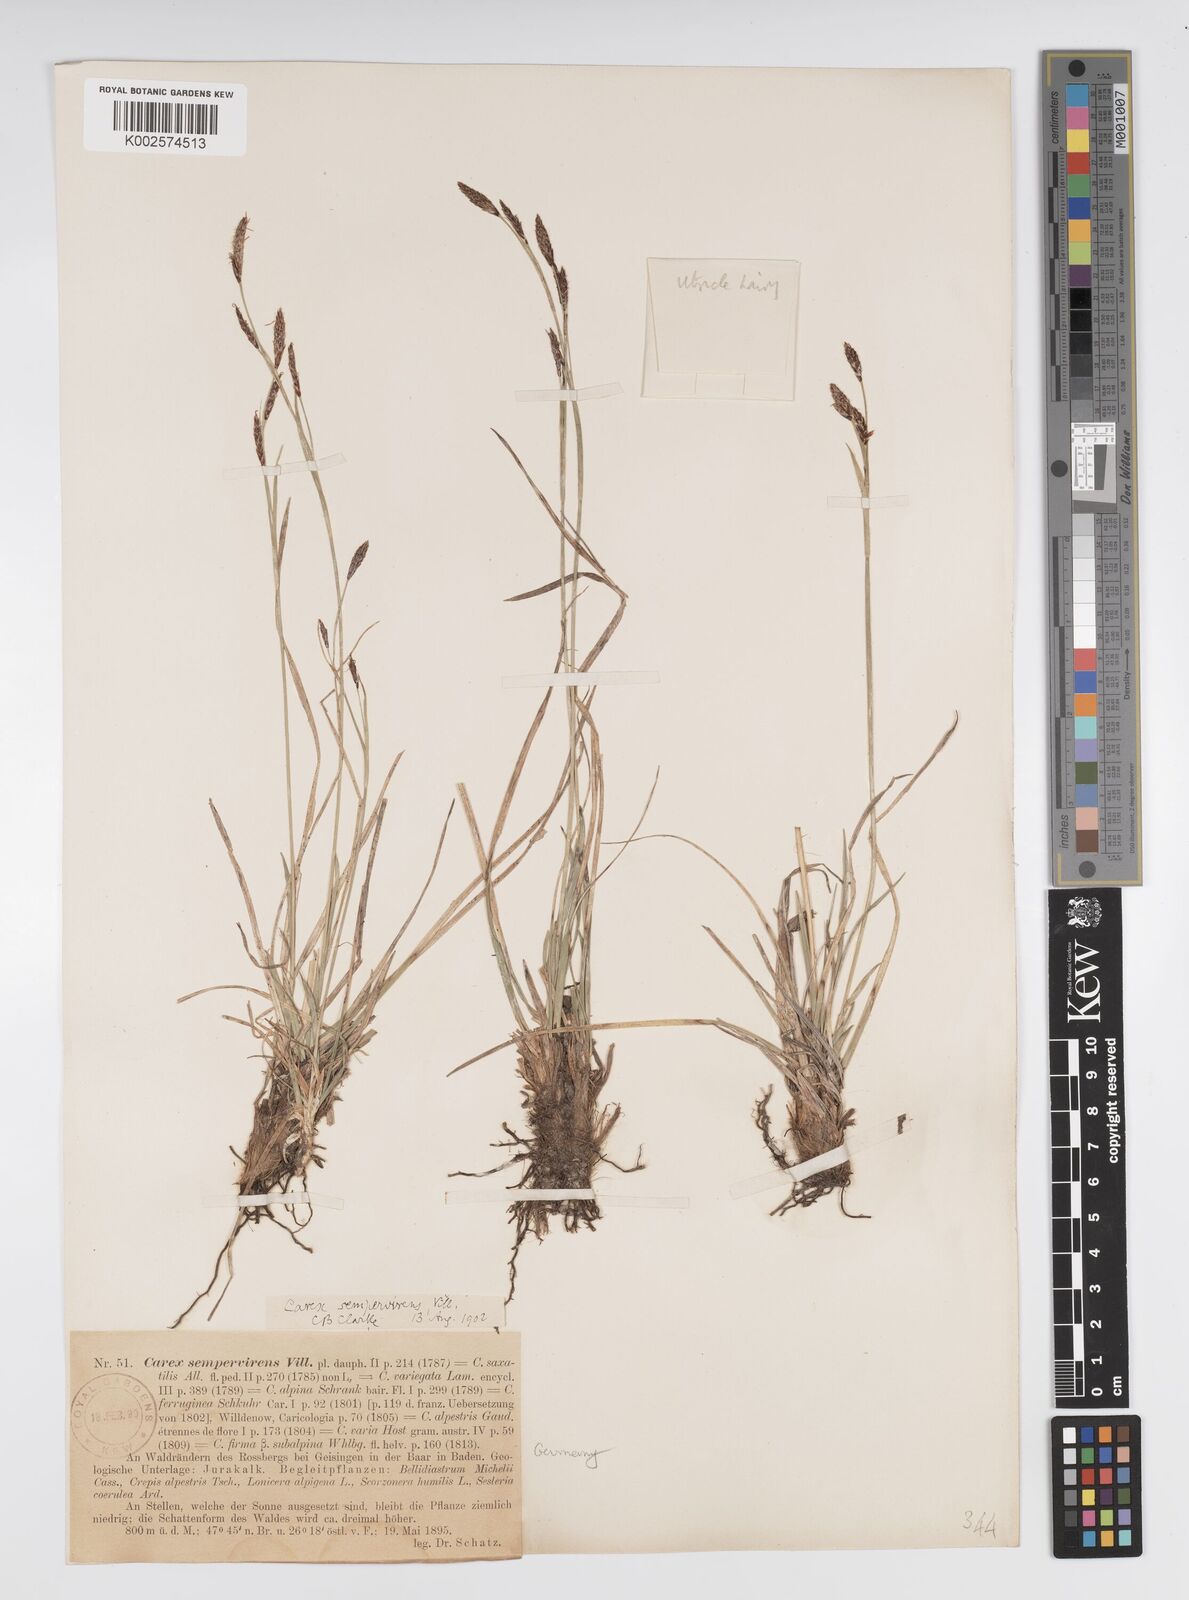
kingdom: Plantae
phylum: Tracheophyta
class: Liliopsida
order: Poales
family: Cyperaceae
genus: Carex
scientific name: Carex sempervirens
